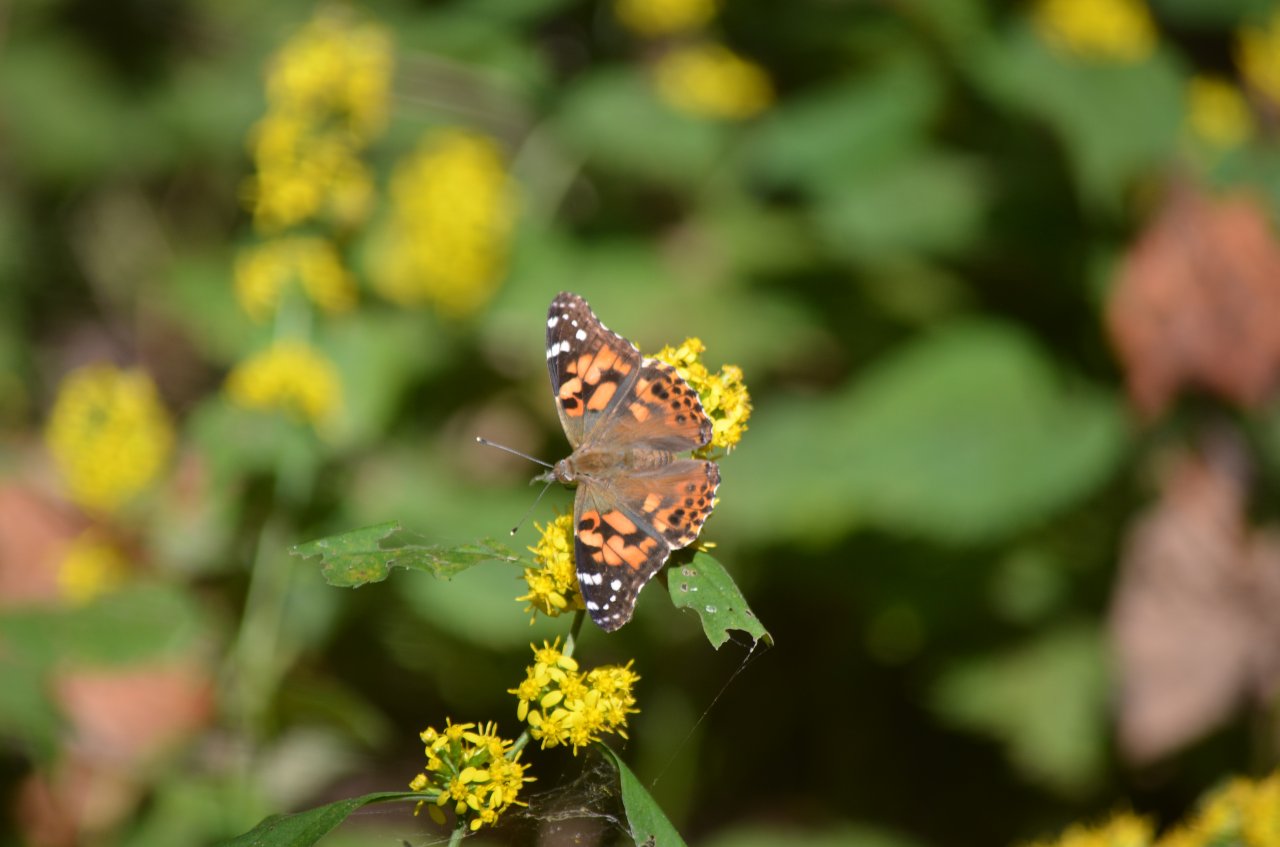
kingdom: Animalia
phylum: Arthropoda
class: Insecta
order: Lepidoptera
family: Nymphalidae
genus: Vanessa
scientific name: Vanessa cardui
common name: Painted Lady
